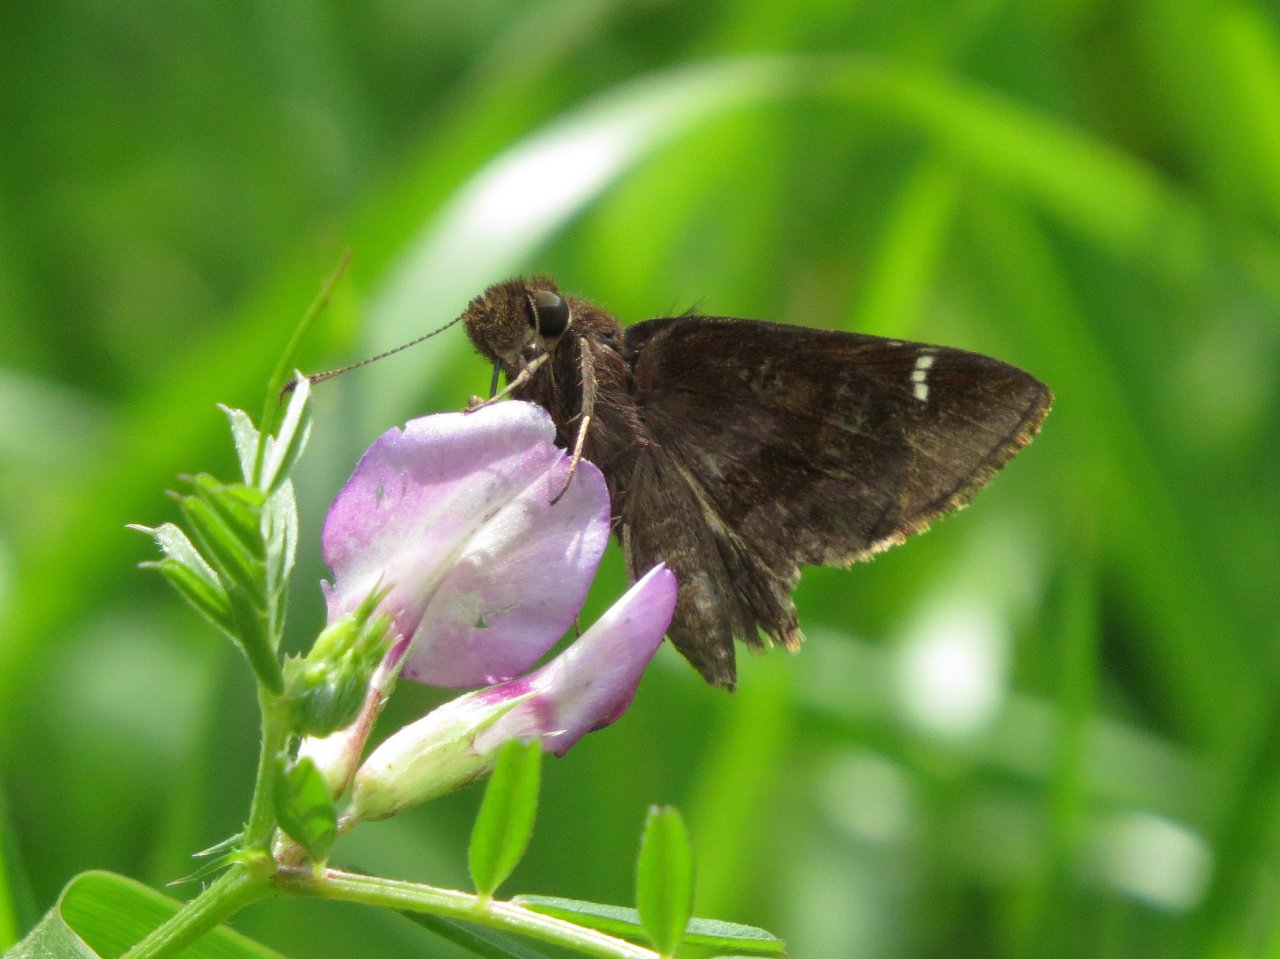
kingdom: Animalia
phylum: Arthropoda
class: Insecta
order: Lepidoptera
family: Hesperiidae
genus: Lerema
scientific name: Lerema accius
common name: Clouded Skipper
